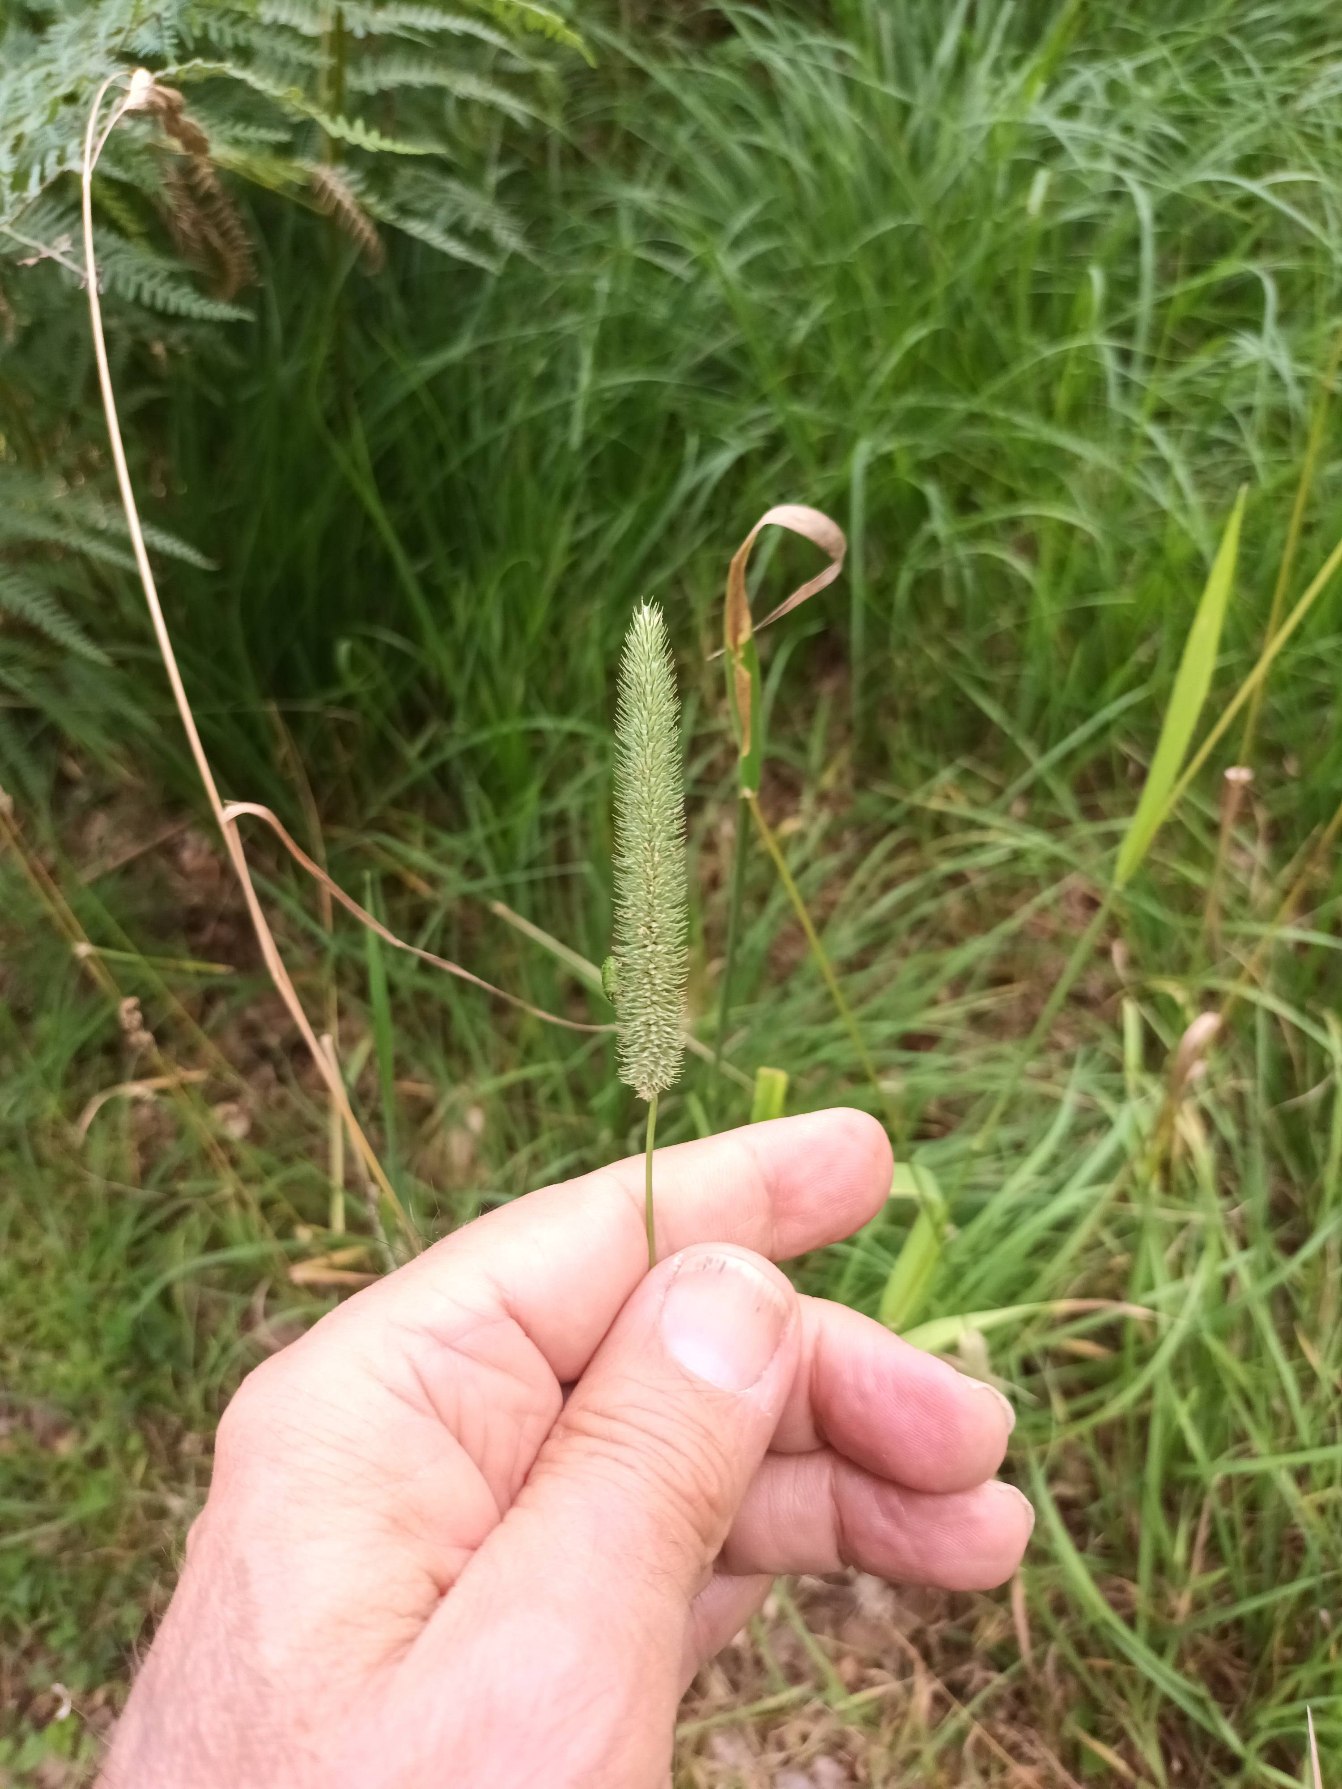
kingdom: Plantae
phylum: Tracheophyta
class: Liliopsida
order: Poales
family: Poaceae
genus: Phleum
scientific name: Phleum pratense
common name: Eng-rottehale
